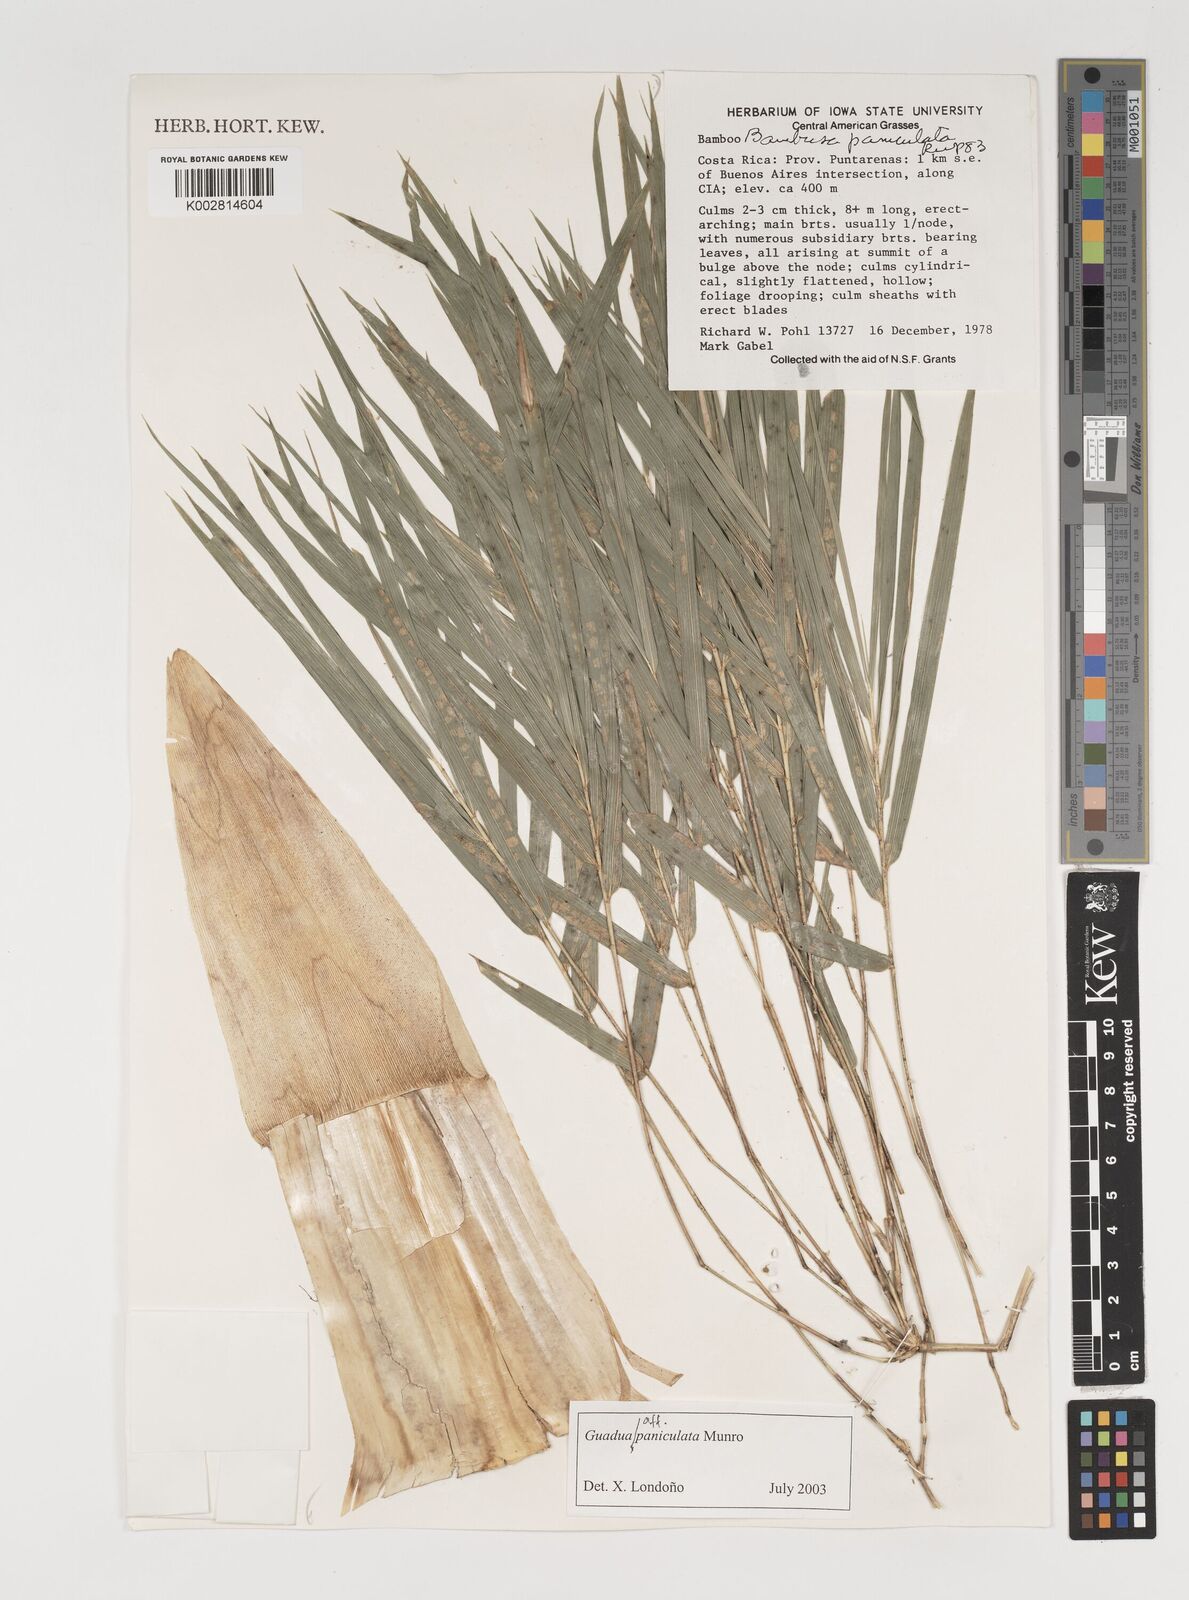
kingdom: Plantae
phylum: Tracheophyta
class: Liliopsida
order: Poales
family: Poaceae
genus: Guadua
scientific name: Guadua
